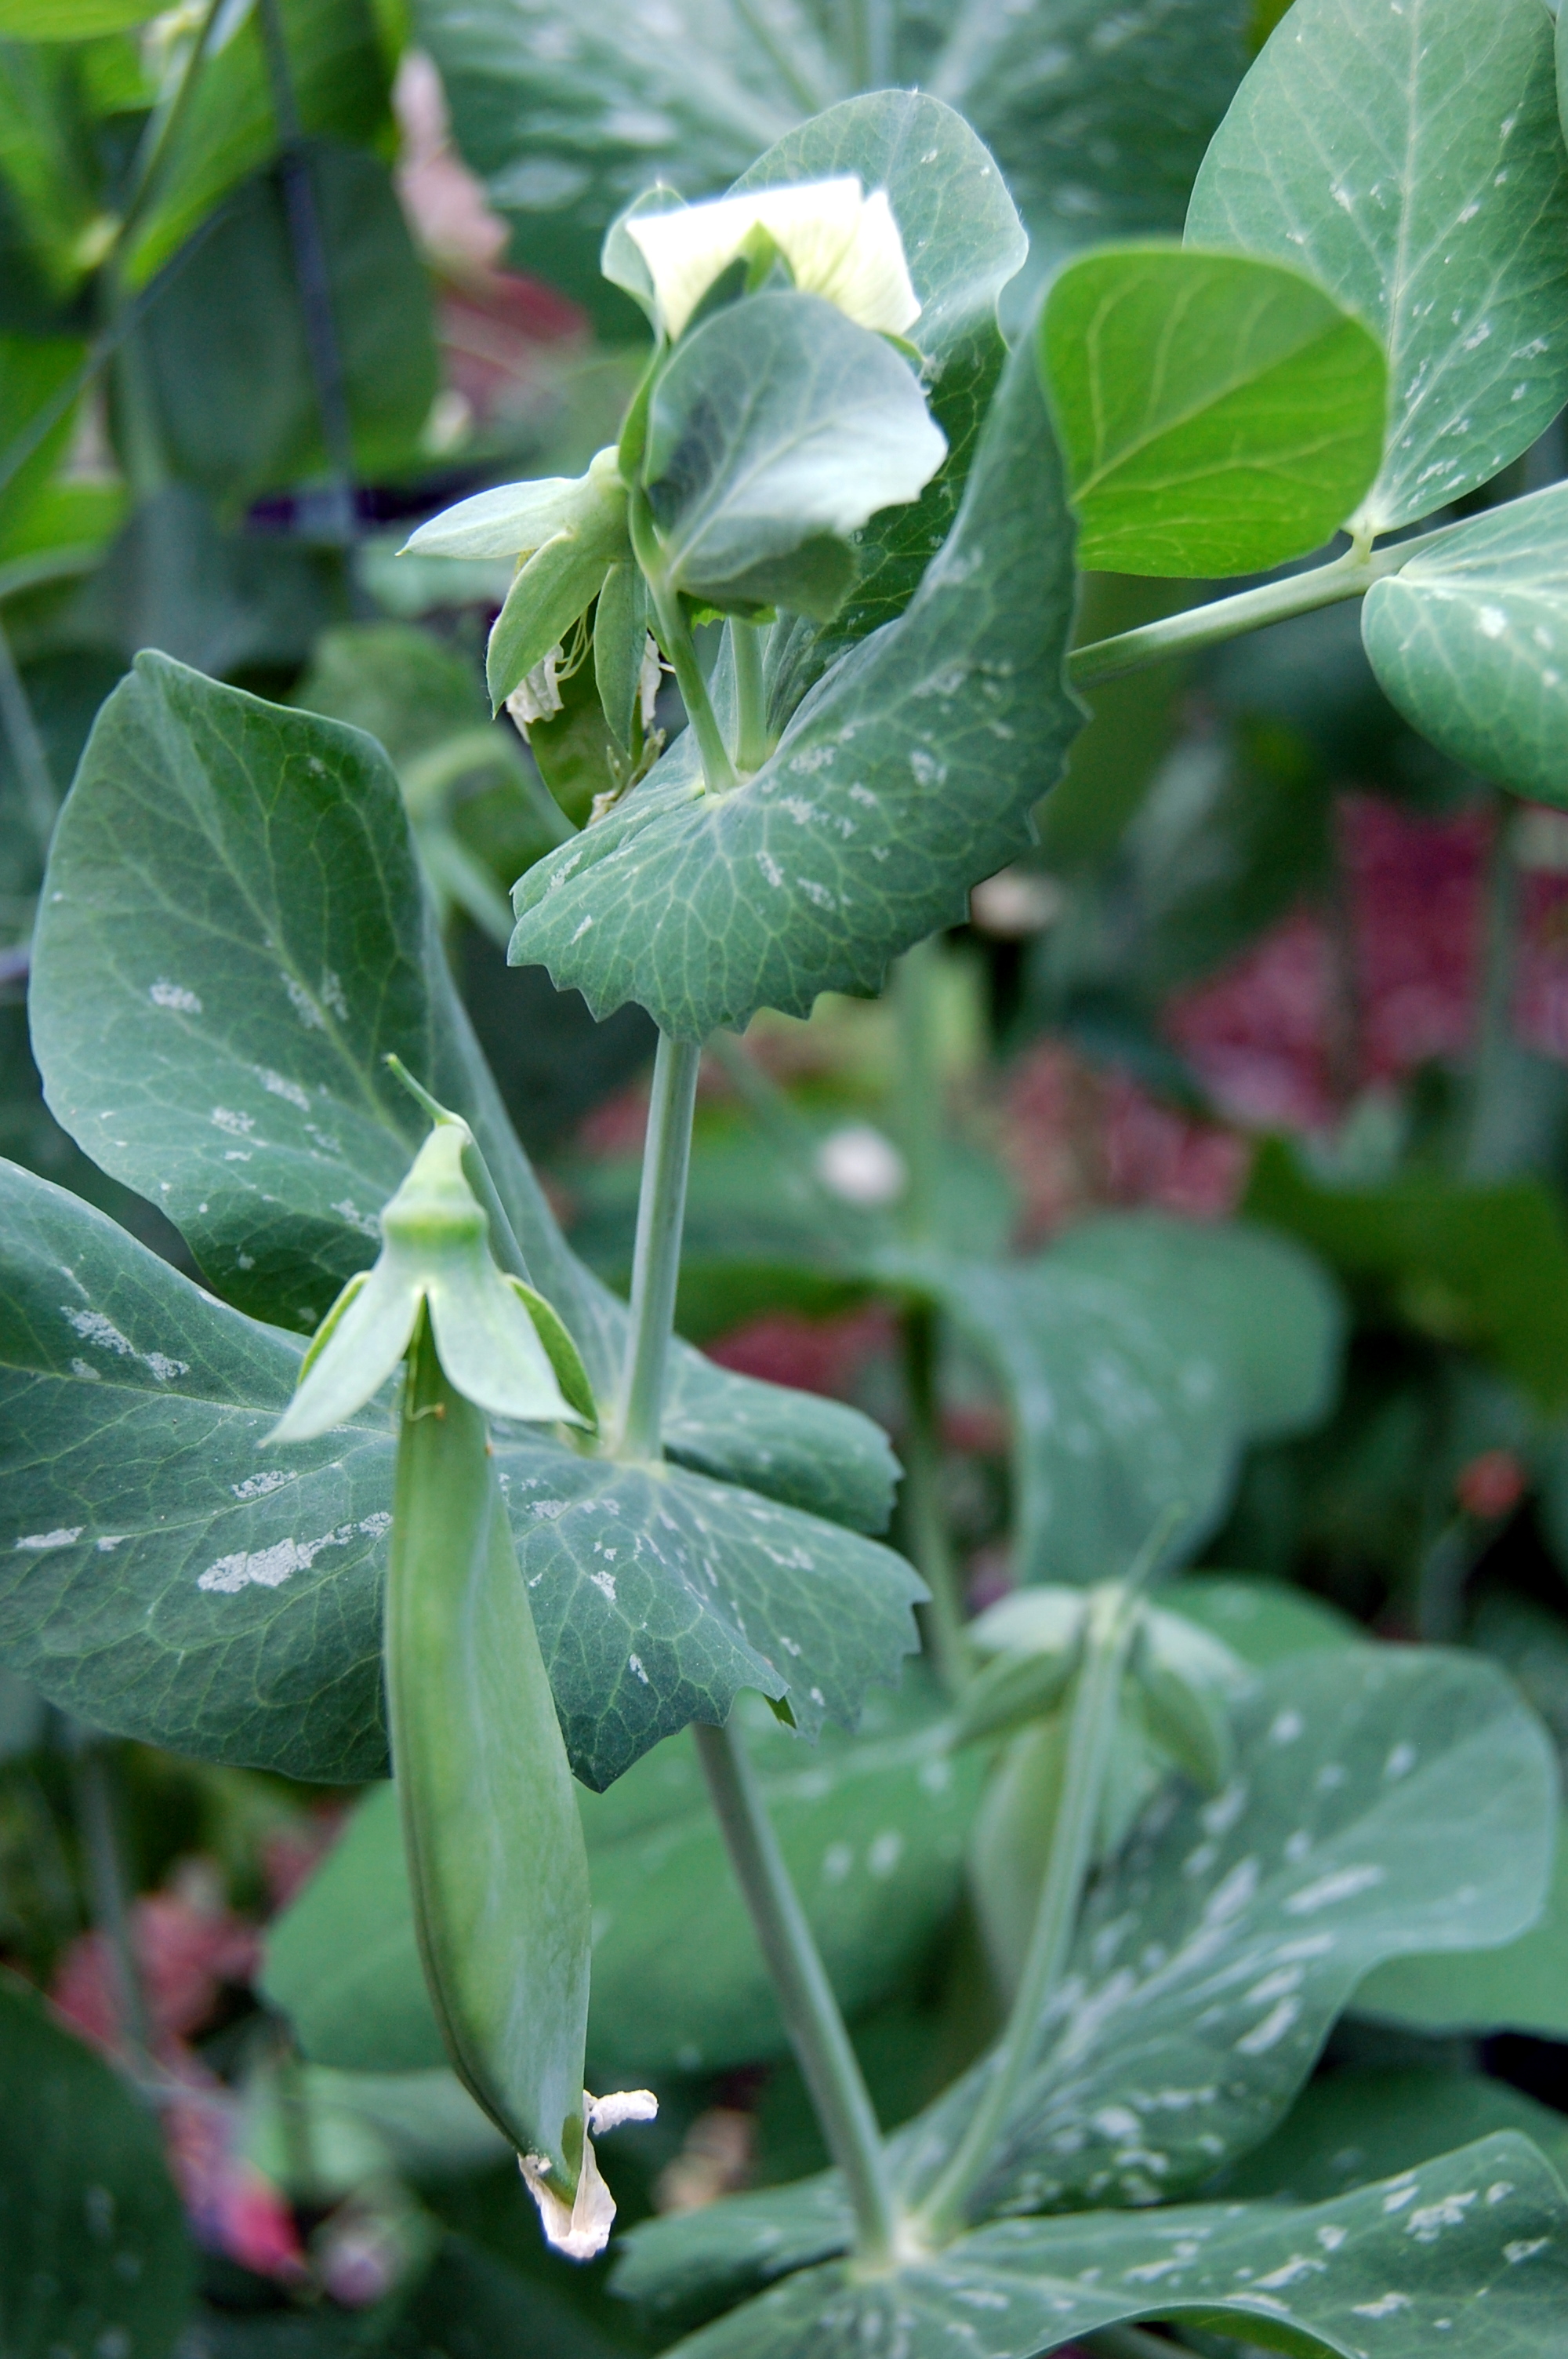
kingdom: Plantae
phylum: Tracheophyta
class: Magnoliopsida
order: Fabales
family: Fabaceae
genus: Lathyrus
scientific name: Lathyrus oleraceus
